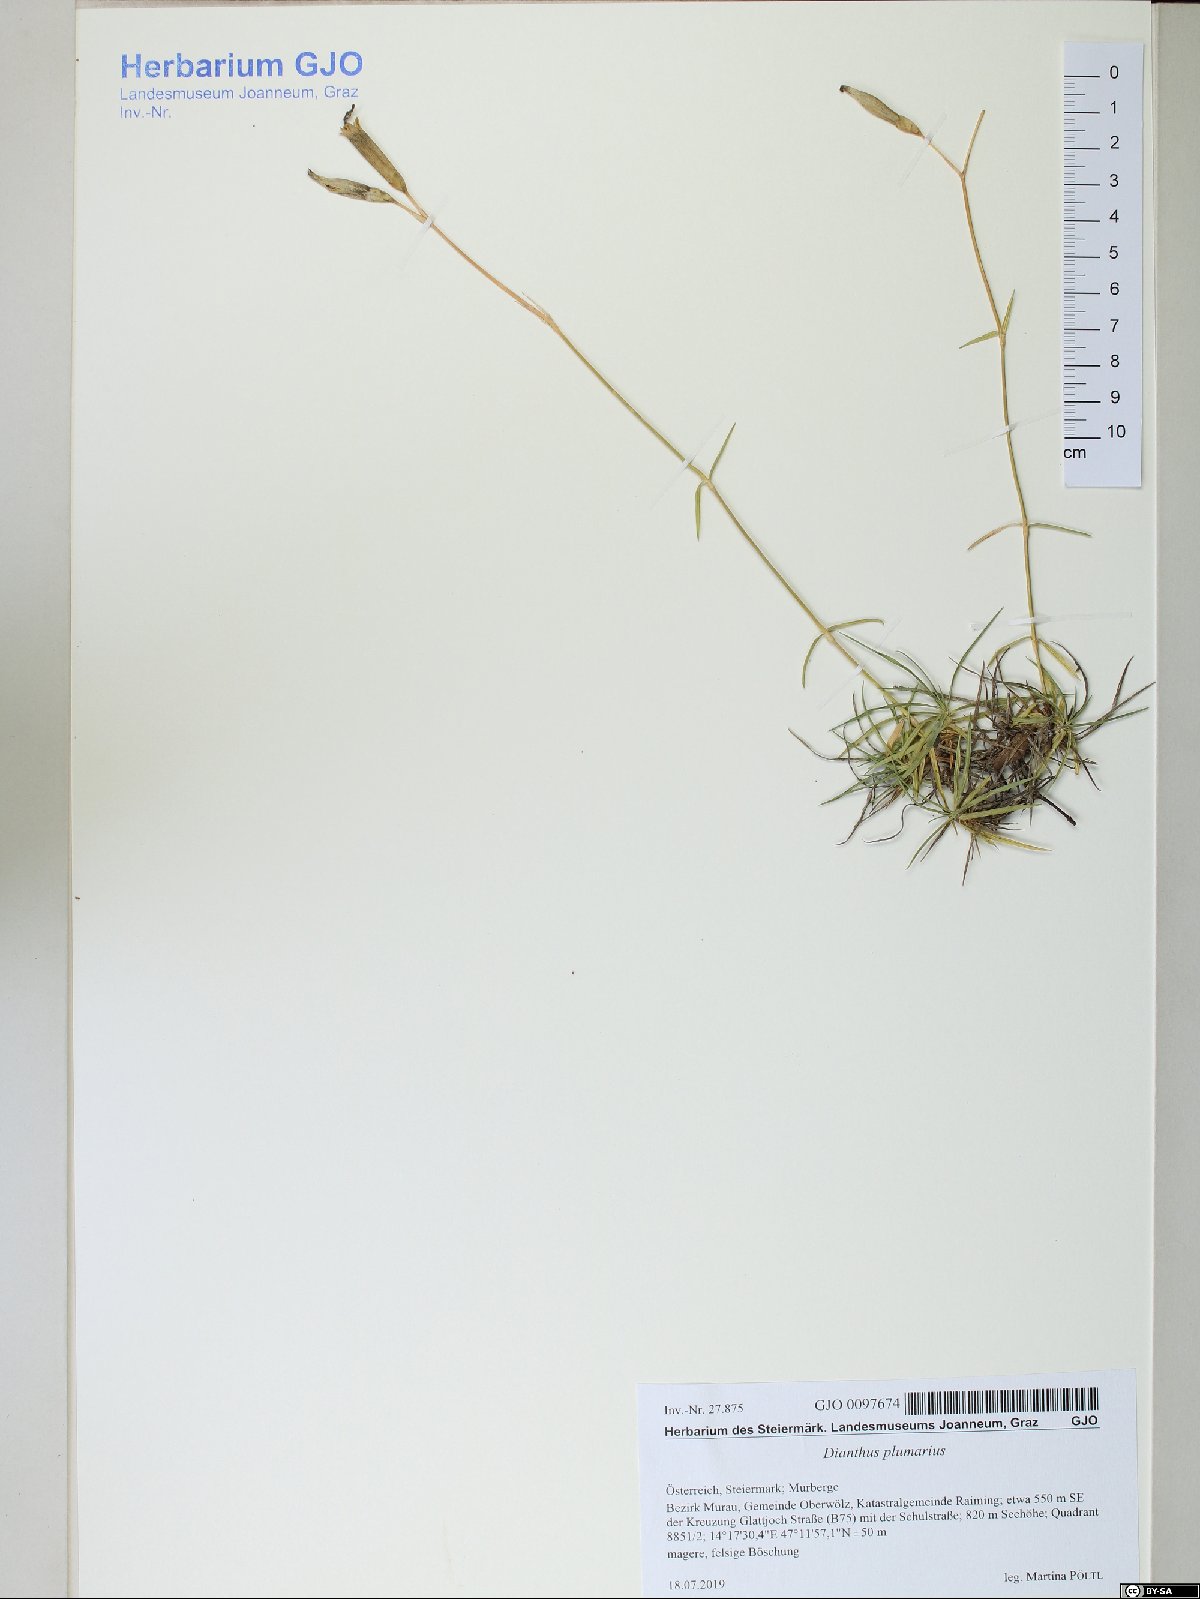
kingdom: Plantae
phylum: Tracheophyta
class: Magnoliopsida
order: Caryophyllales
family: Caryophyllaceae
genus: Dianthus
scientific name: Dianthus plumarius
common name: Pink
